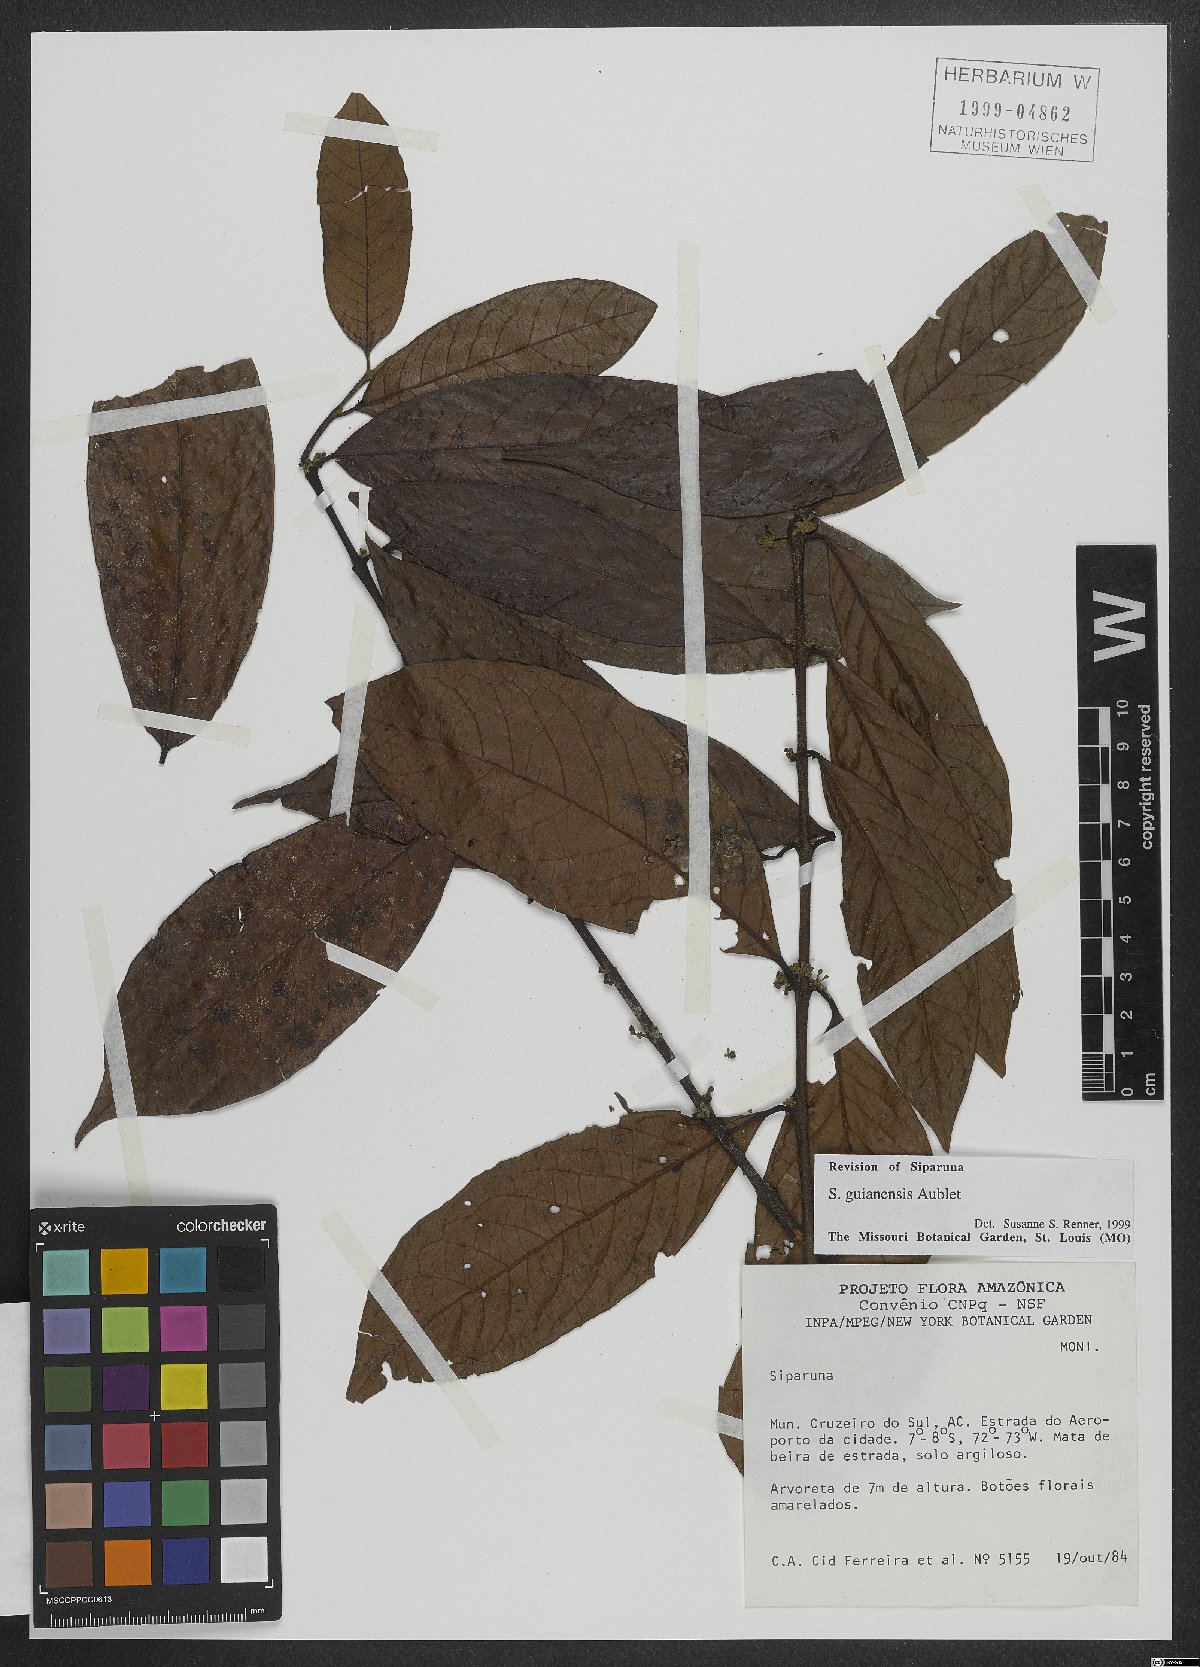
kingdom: Plantae
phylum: Tracheophyta
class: Magnoliopsida
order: Laurales
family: Siparunaceae
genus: Siparuna
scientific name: Siparuna guianensis
